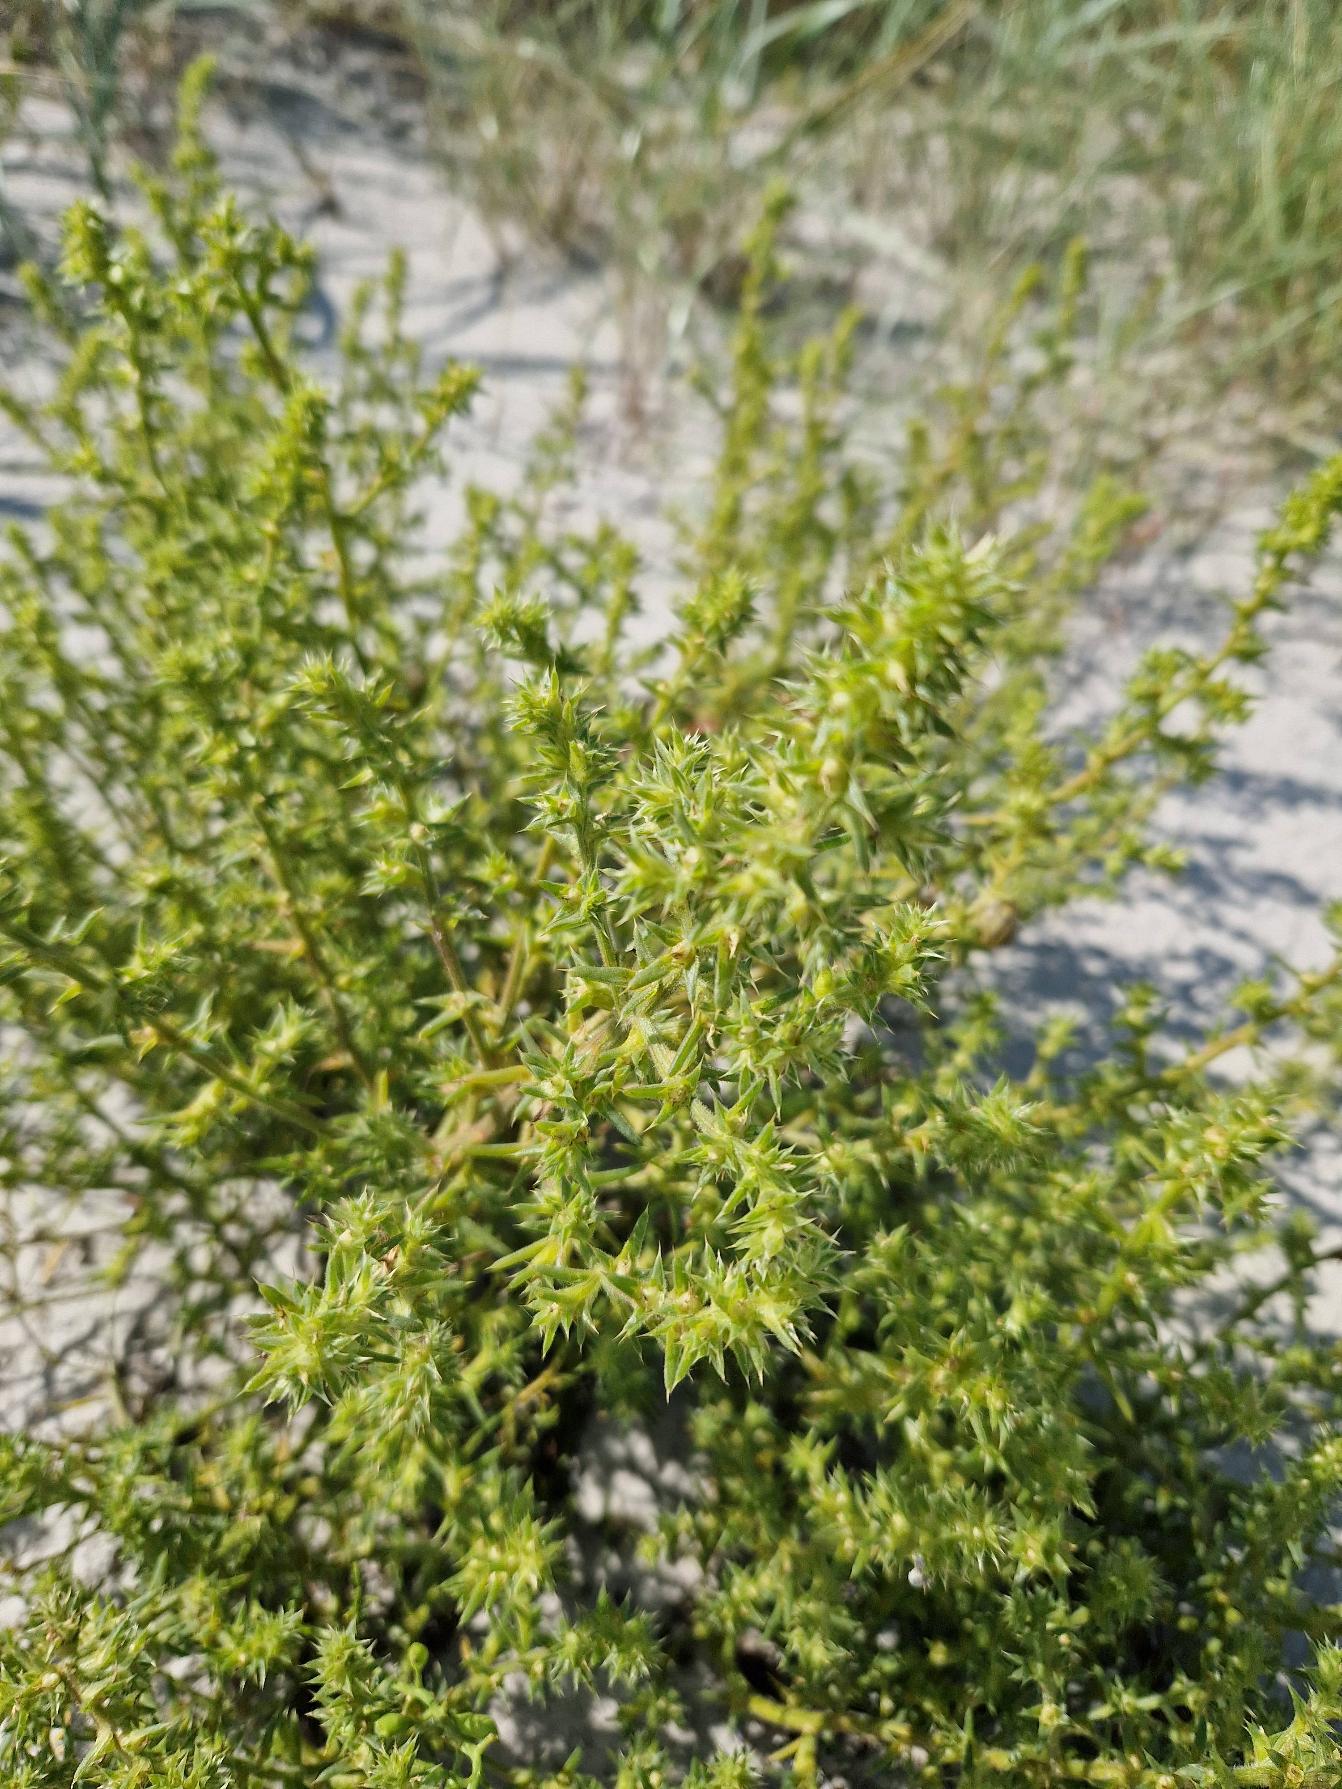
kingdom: Plantae
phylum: Tracheophyta
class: Magnoliopsida
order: Caryophyllales
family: Amaranthaceae
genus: Salsola
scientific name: Salsola kali
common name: Sodaurt
